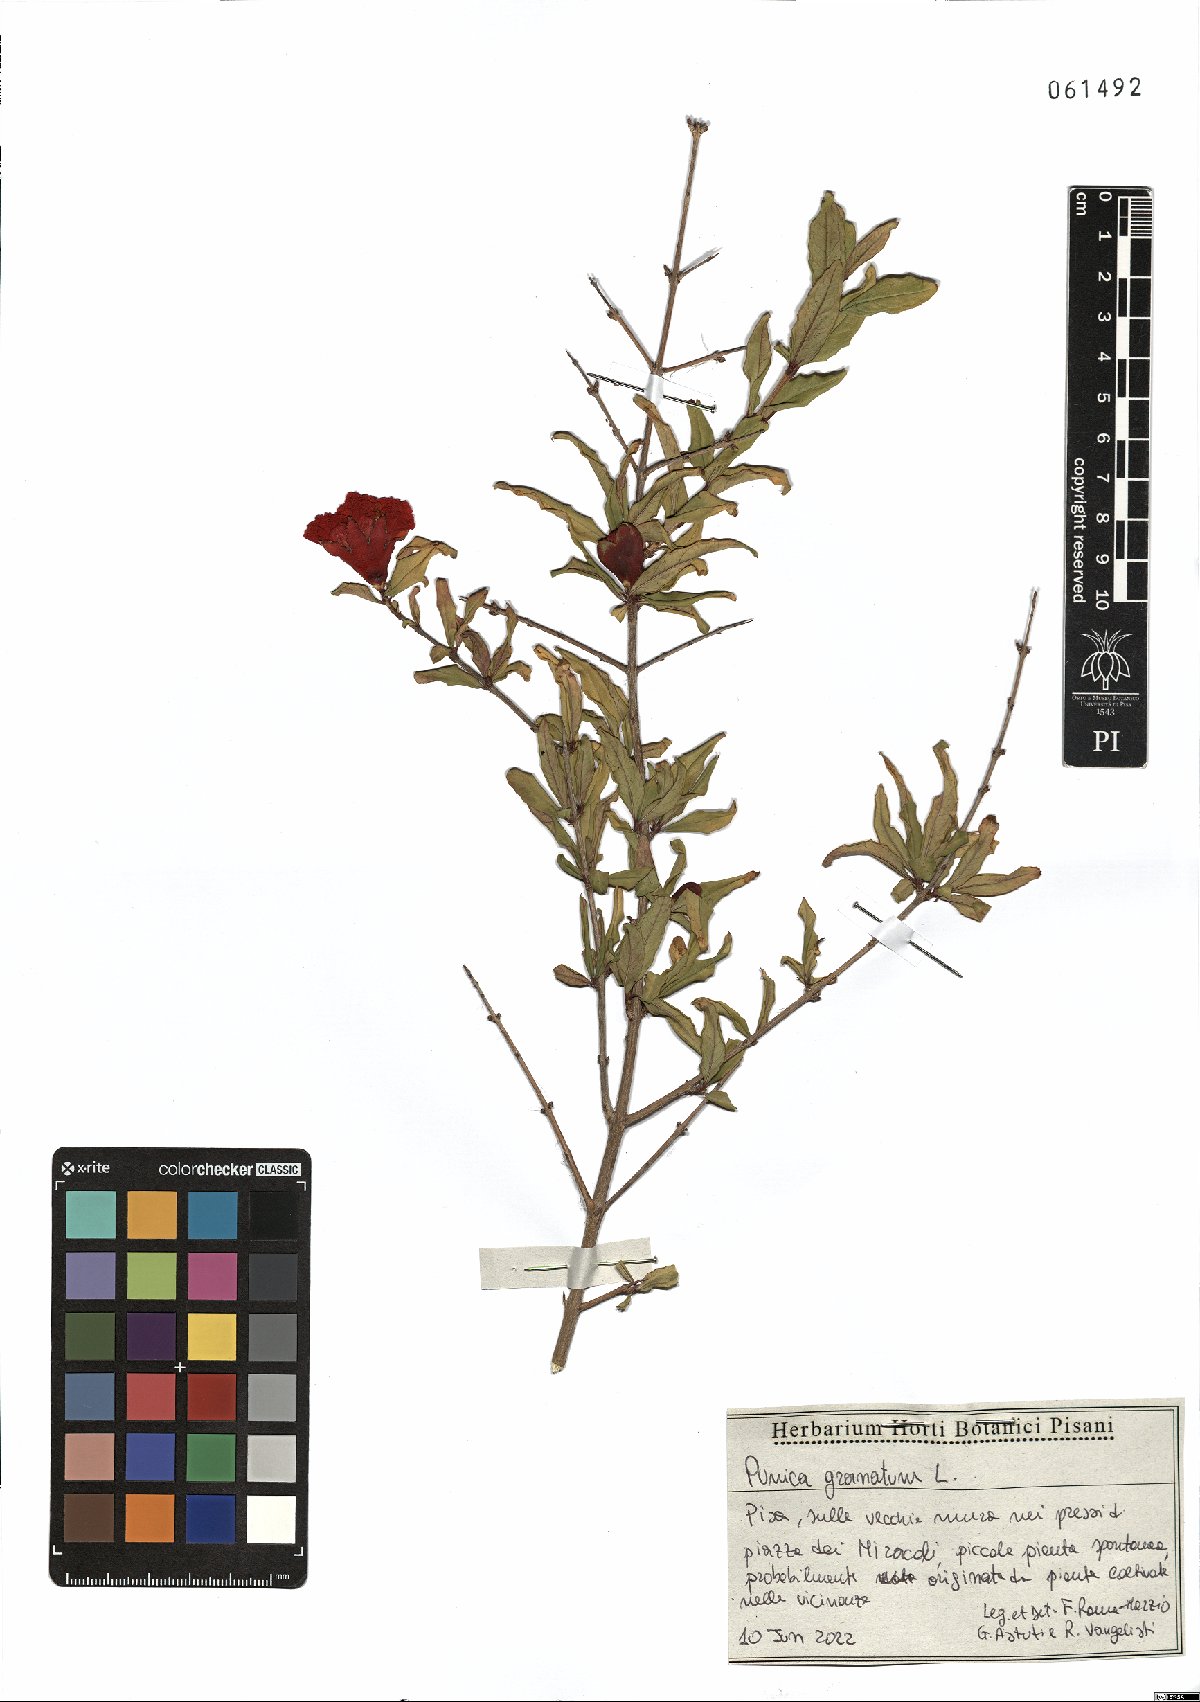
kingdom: Plantae
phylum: Tracheophyta
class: Magnoliopsida
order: Myrtales
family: Lythraceae
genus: Punica
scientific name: Punica granatum
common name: Pomegranate
